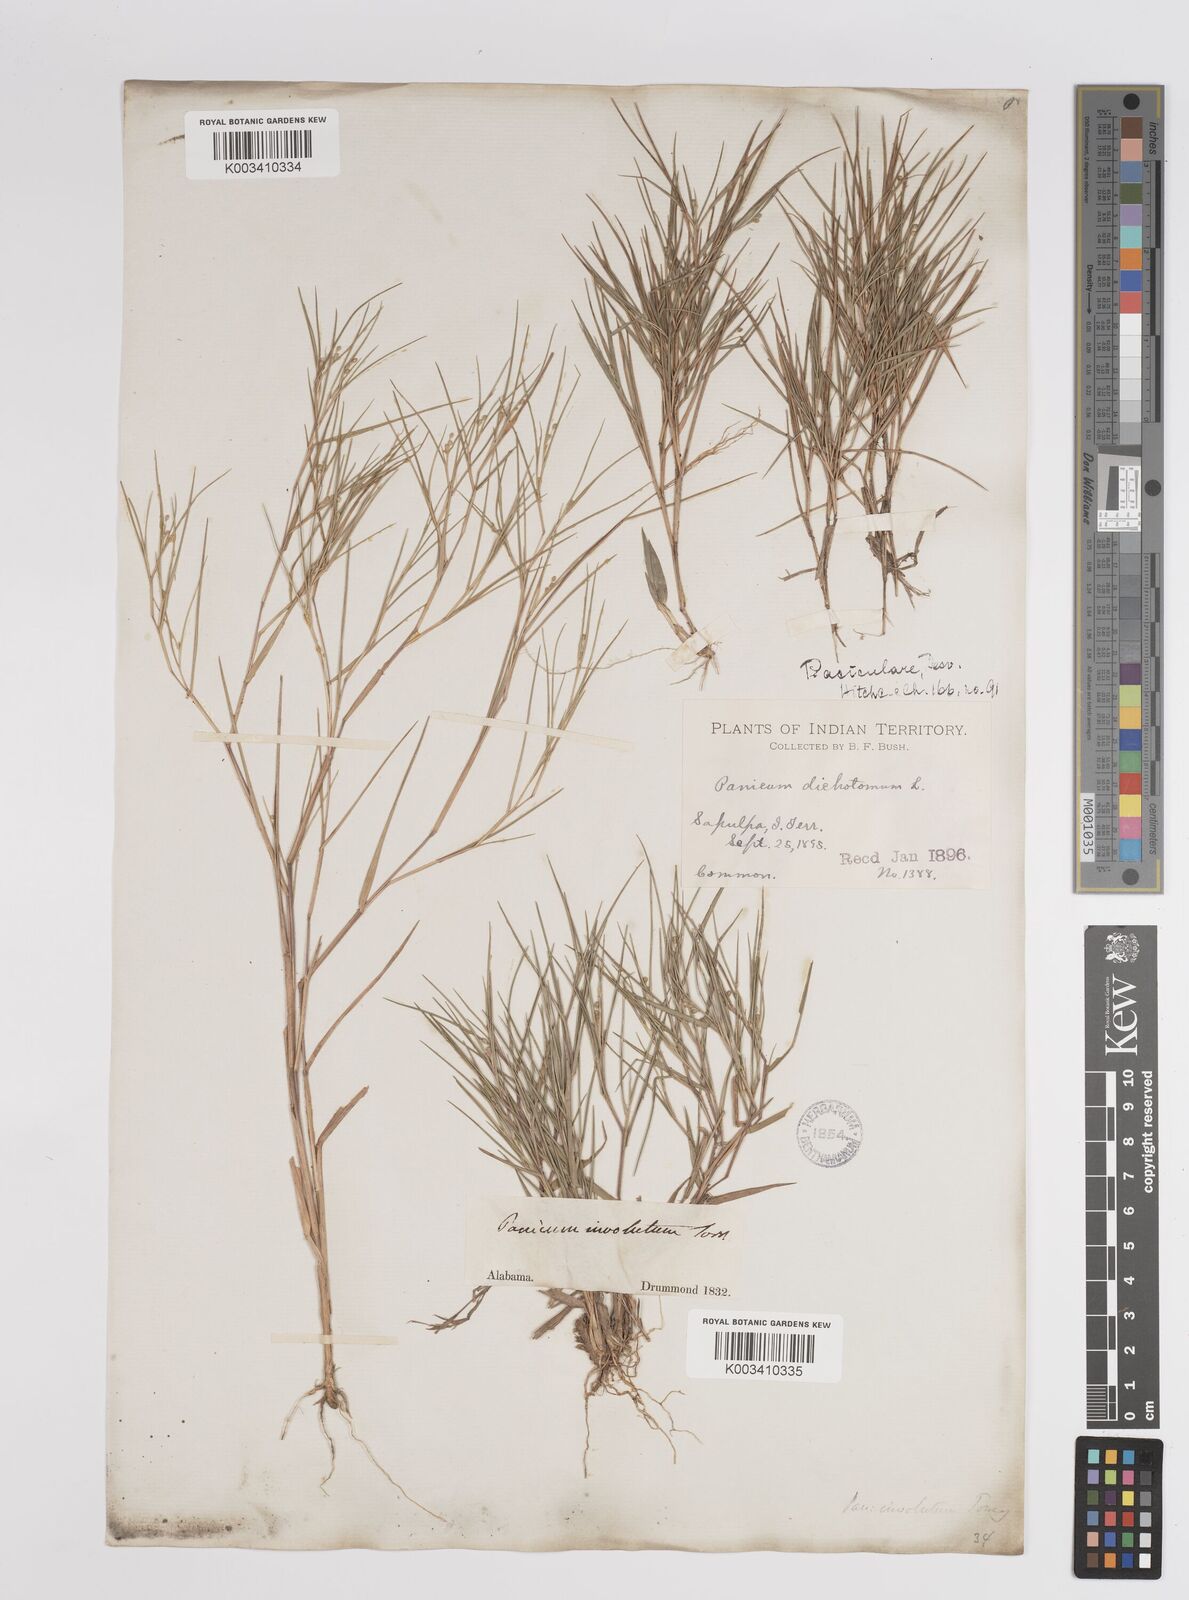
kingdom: Plantae
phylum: Tracheophyta
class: Liliopsida
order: Poales
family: Poaceae
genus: Dichanthelium
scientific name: Dichanthelium aciculare
